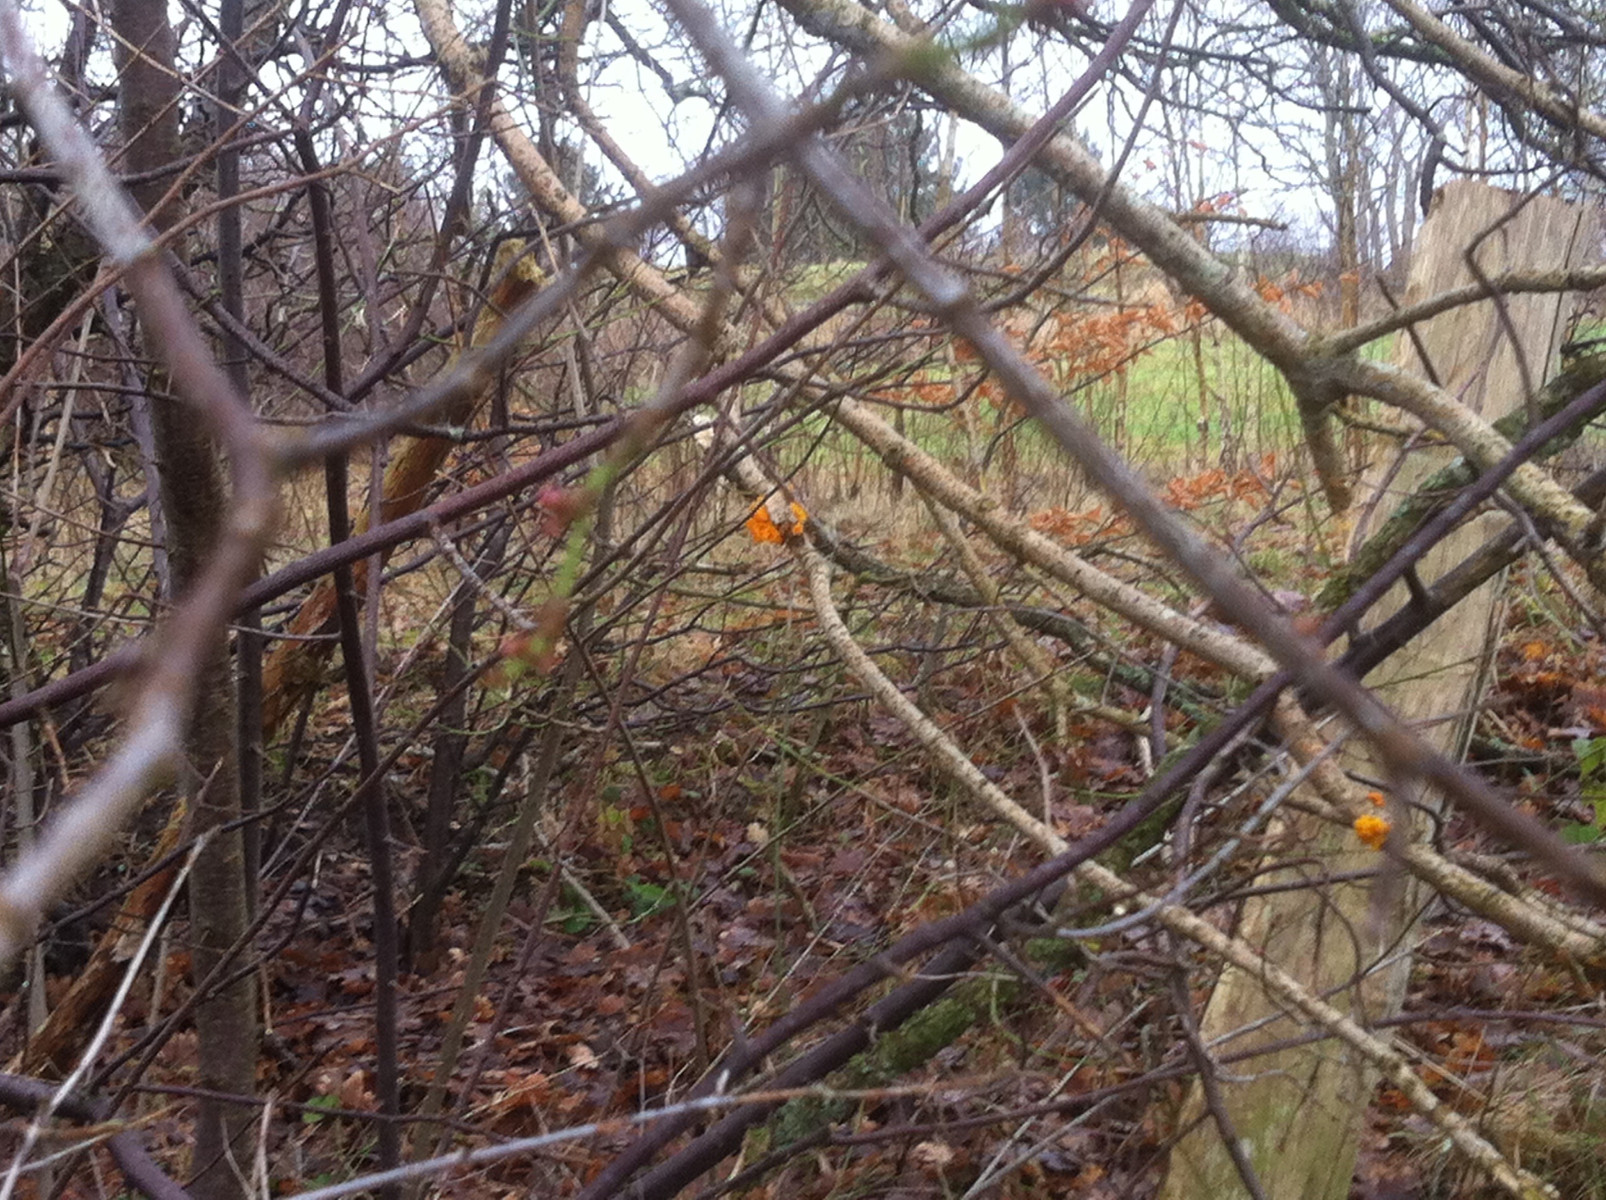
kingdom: Fungi
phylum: Basidiomycota
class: Tremellomycetes
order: Tremellales
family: Tremellaceae
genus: Tremella
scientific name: Tremella mesenterica
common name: gul bævresvamp
